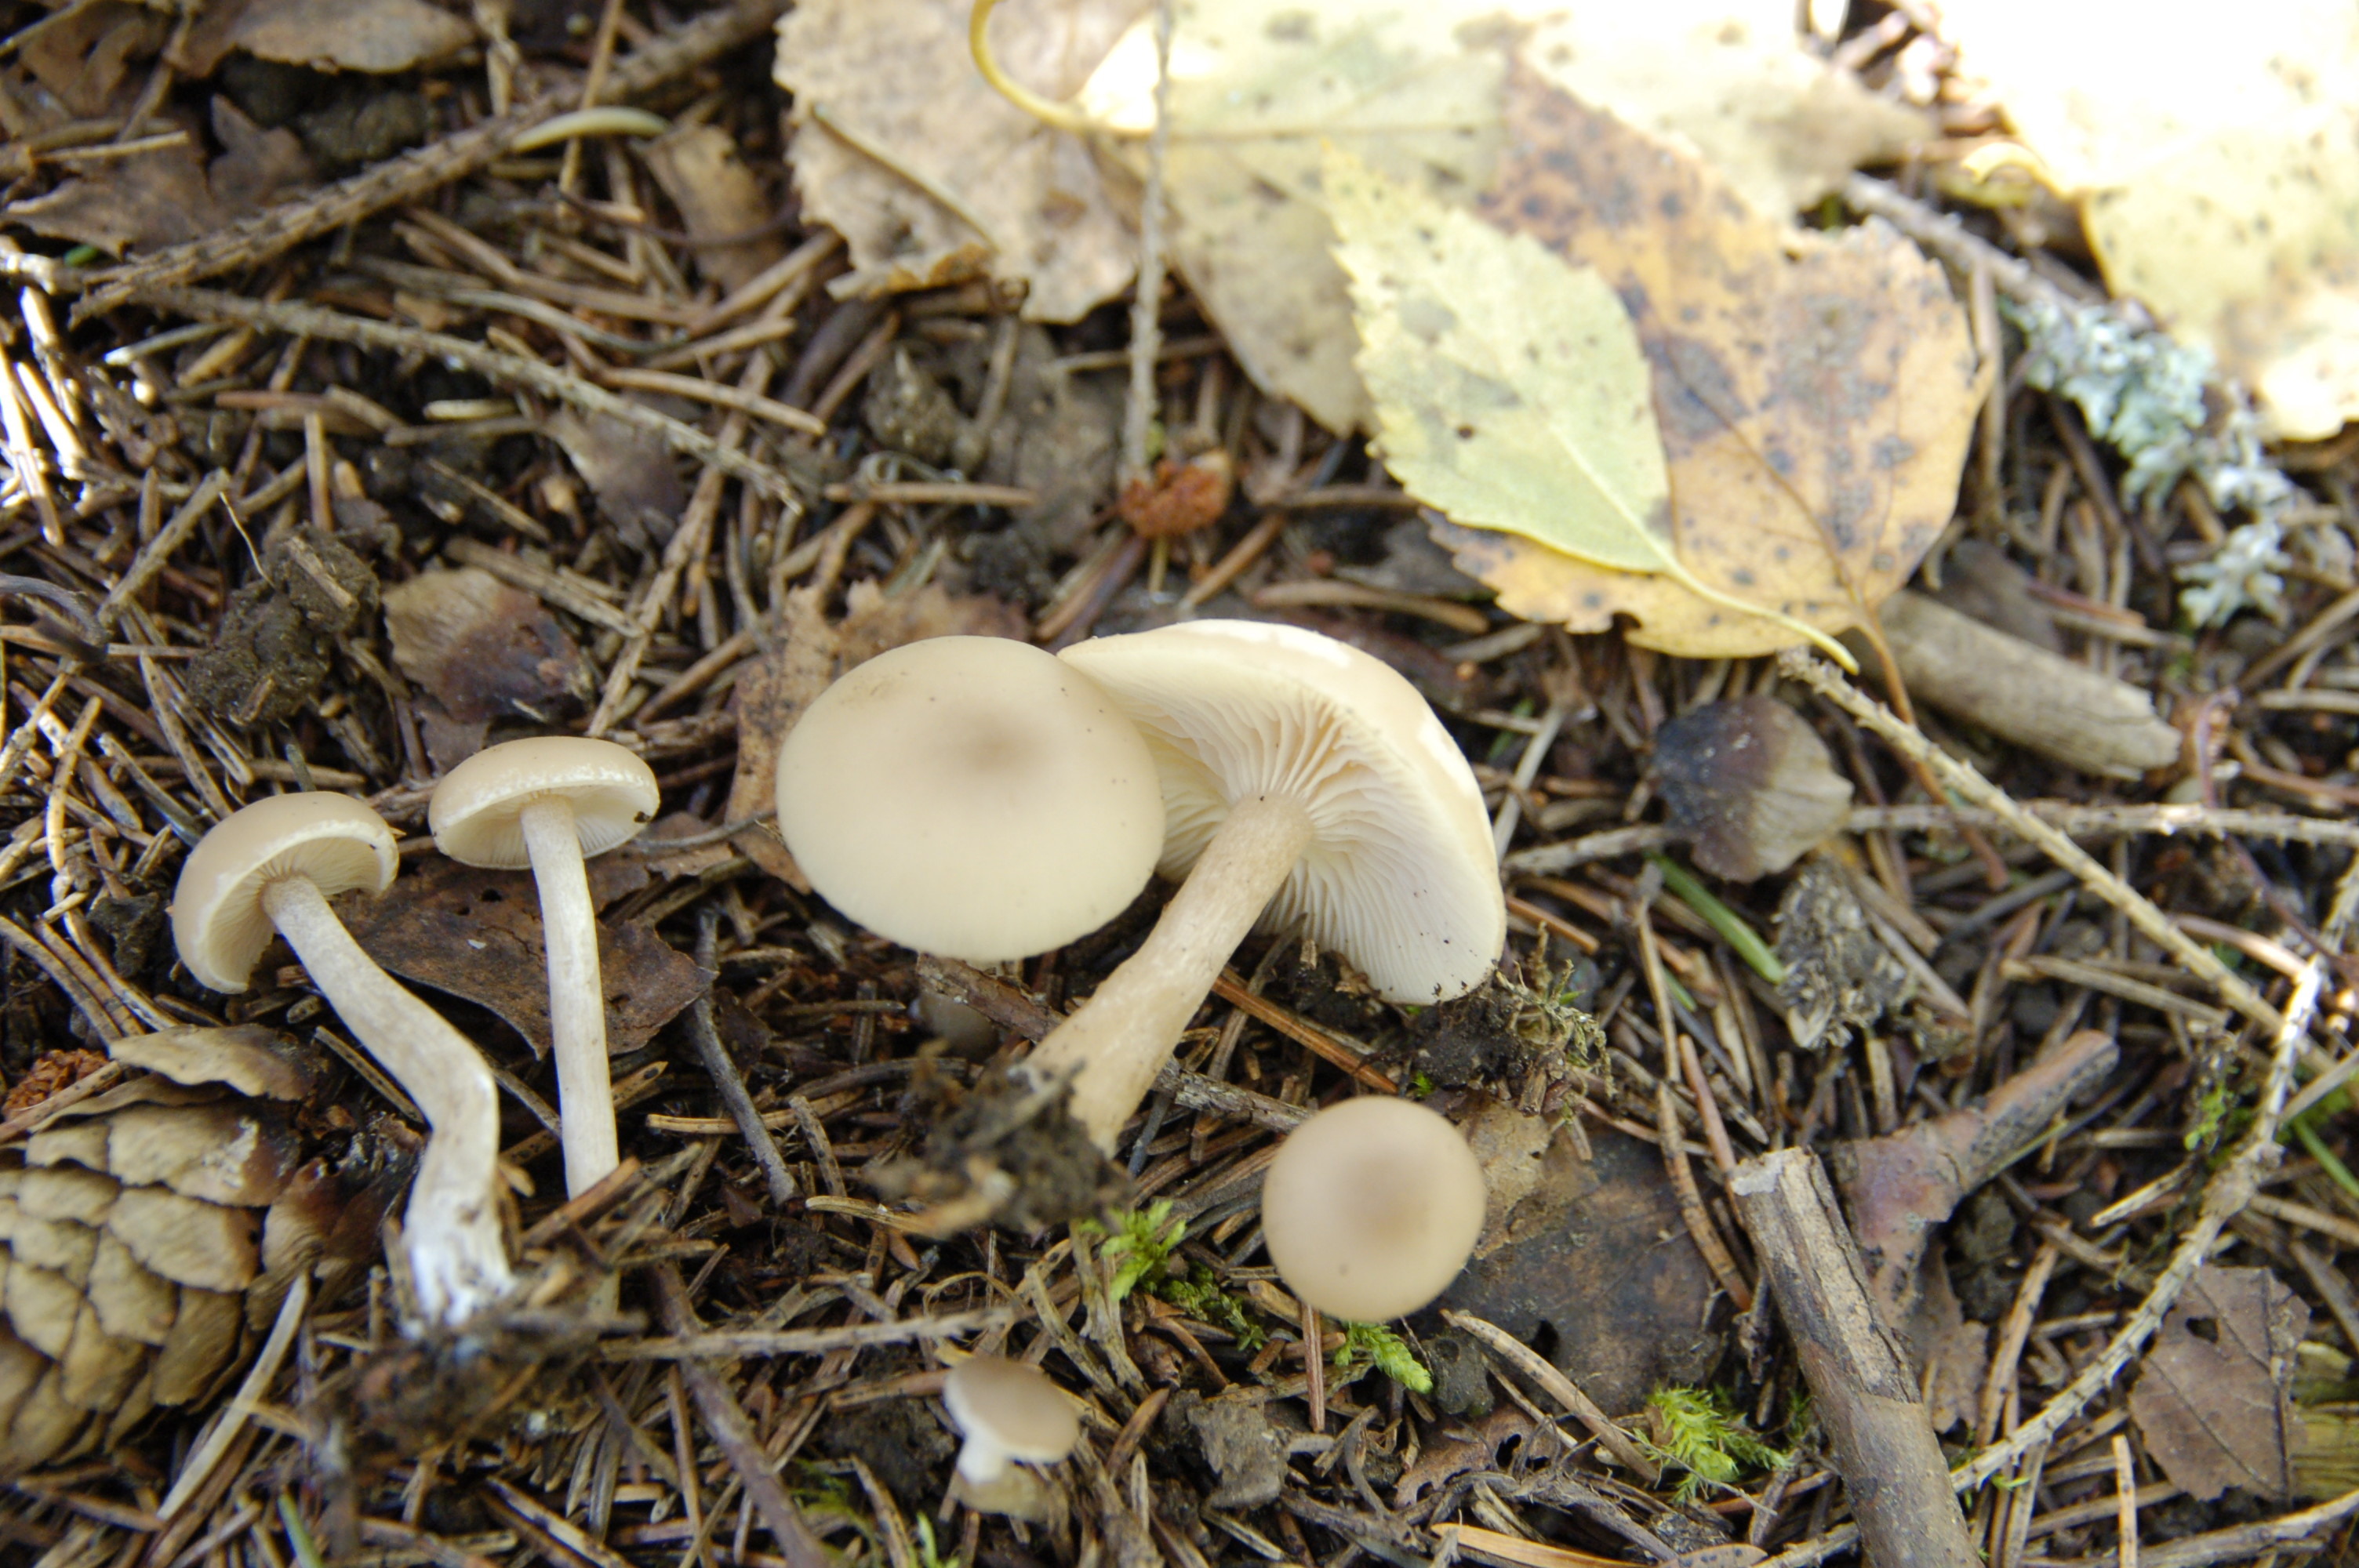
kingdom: Fungi
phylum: Basidiomycota
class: Agaricomycetes
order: Agaricales
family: Tricholomataceae
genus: Clitocybe
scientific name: Clitocybe
